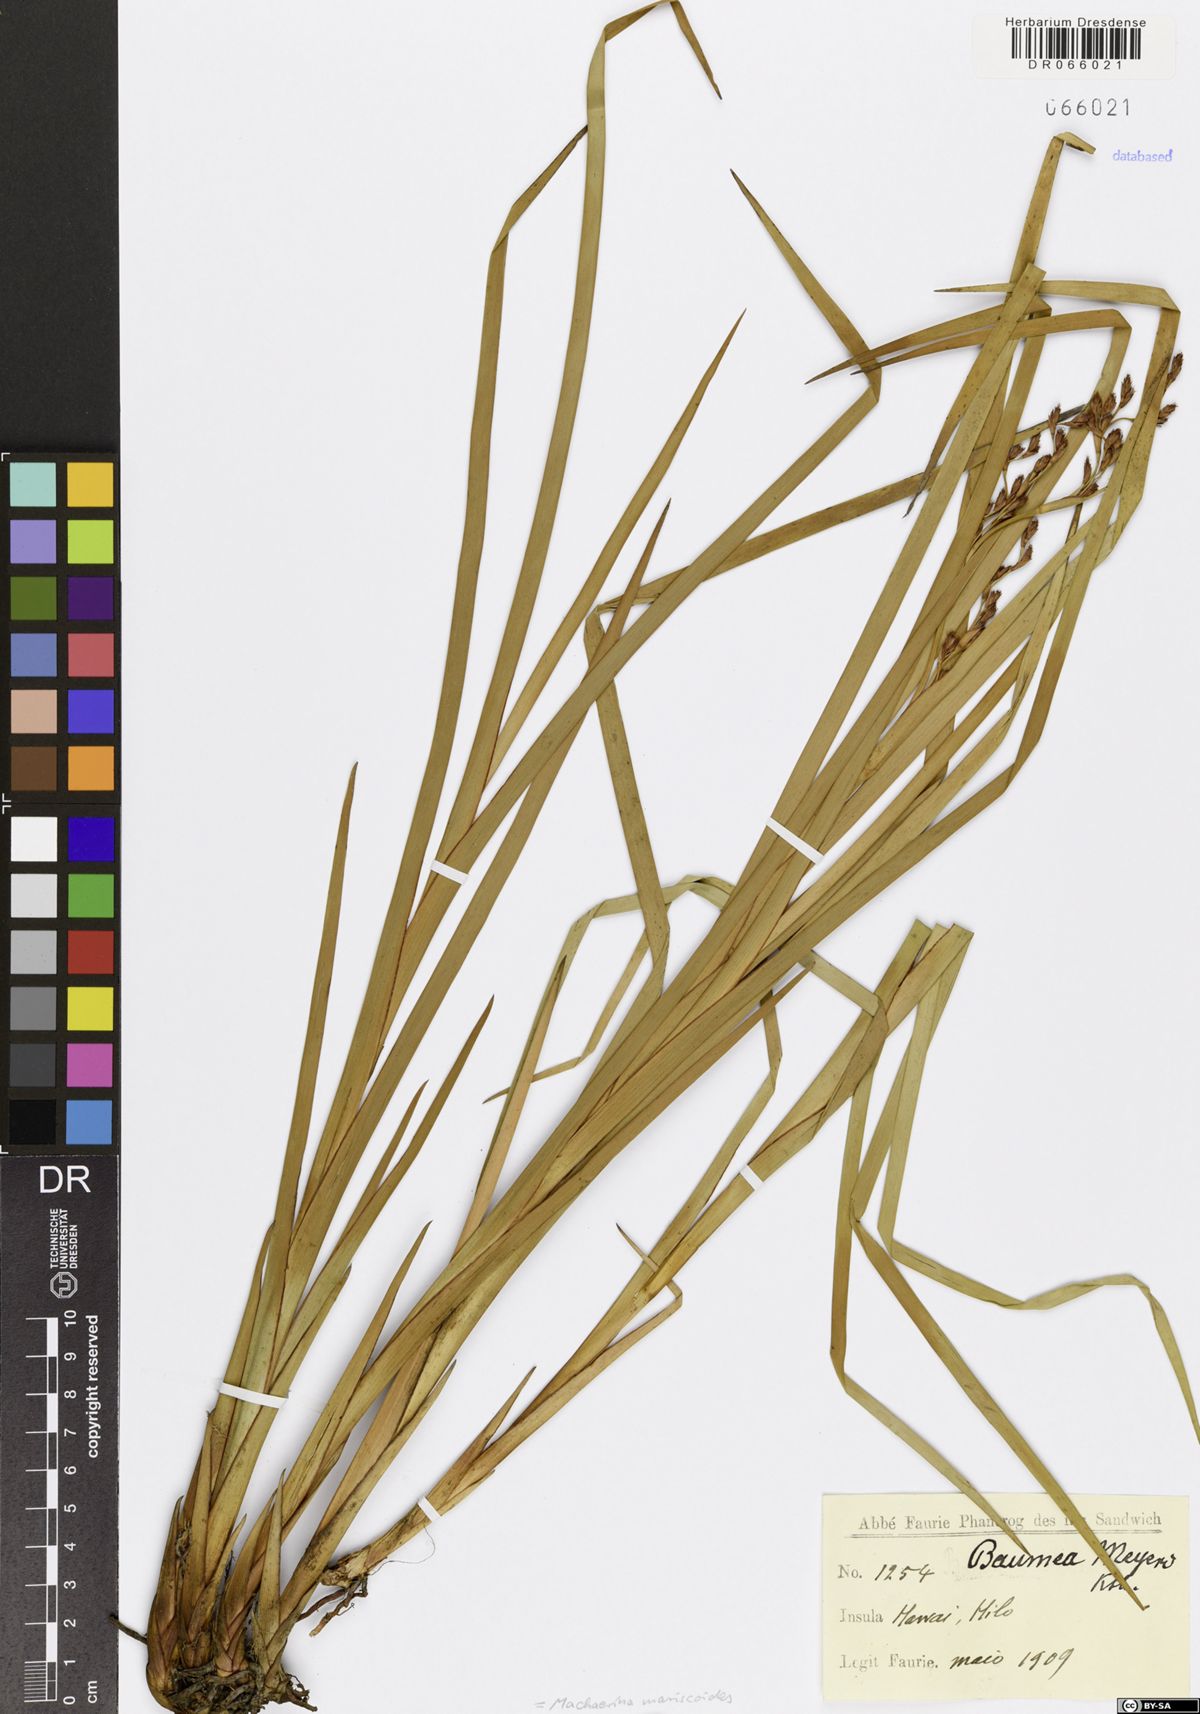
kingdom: Plantae
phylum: Tracheophyta
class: Liliopsida
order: Poales
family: Cyperaceae
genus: Machaerina
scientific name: Machaerina mariscoides
